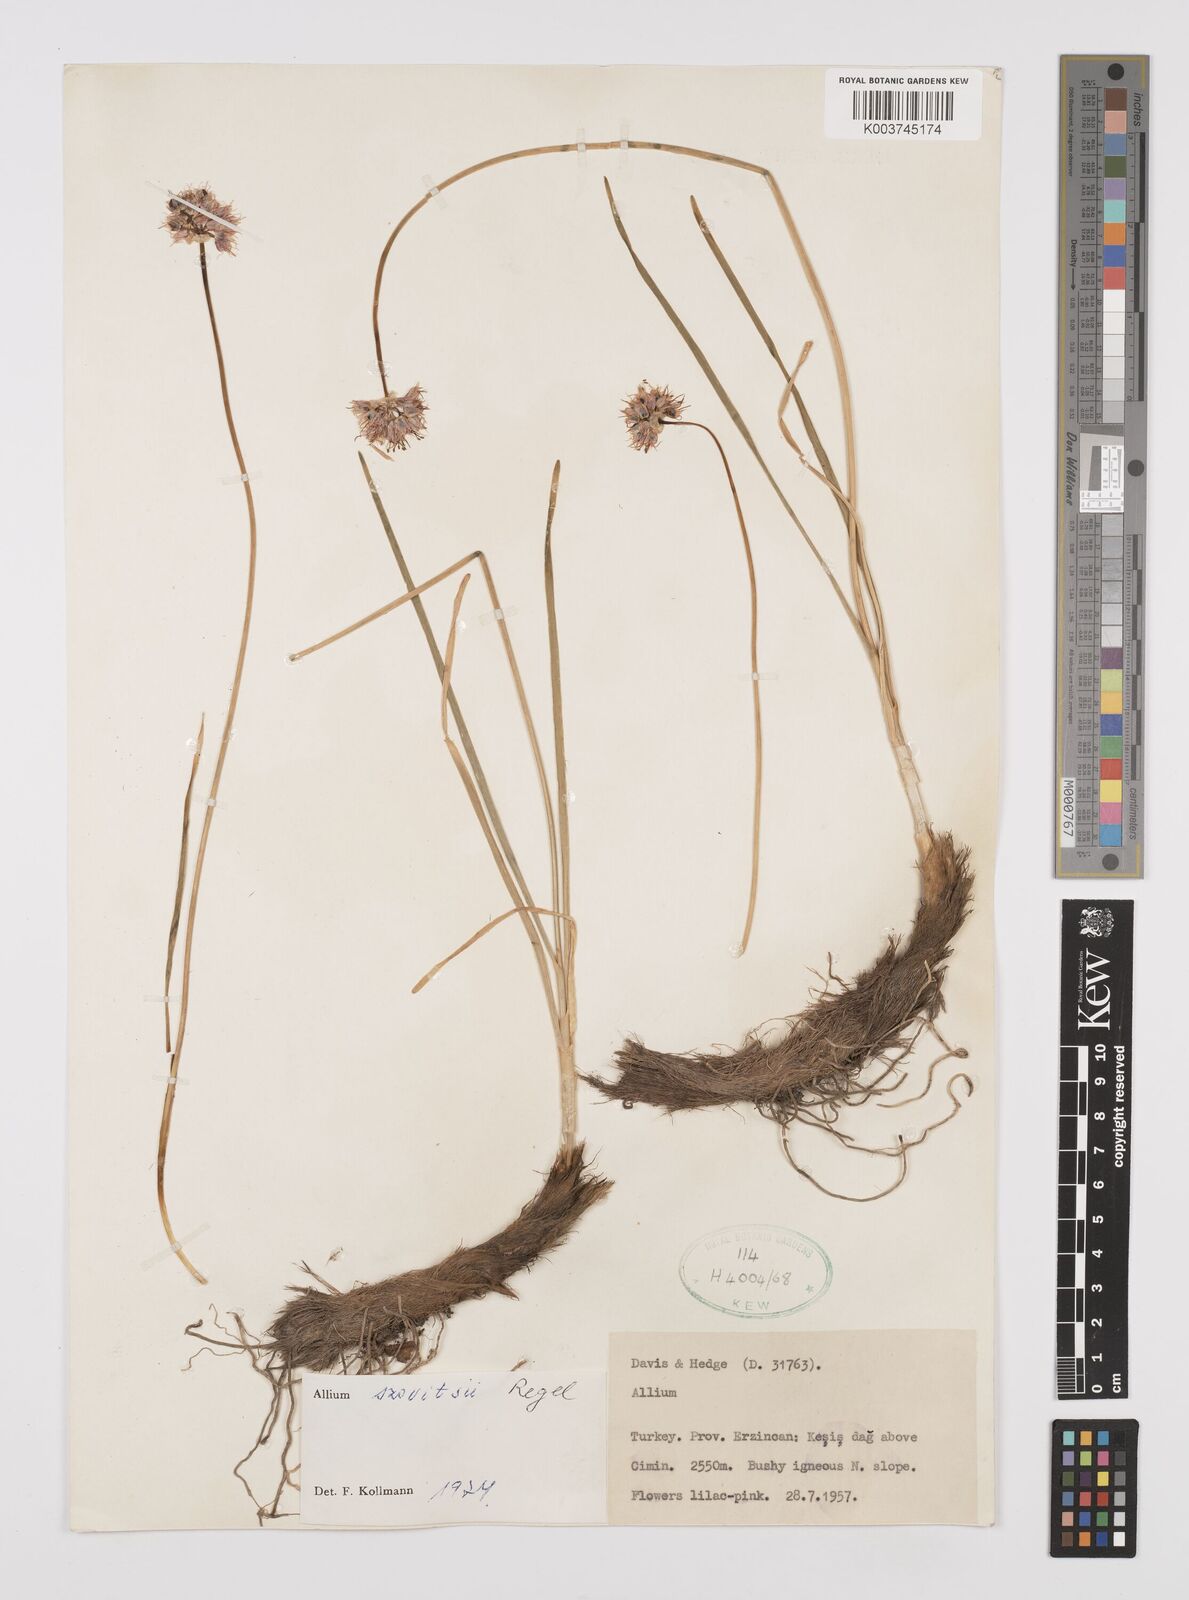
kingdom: Plantae
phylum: Tracheophyta
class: Liliopsida
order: Asparagales
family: Amaryllidaceae
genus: Allium
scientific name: Allium szovitsii
